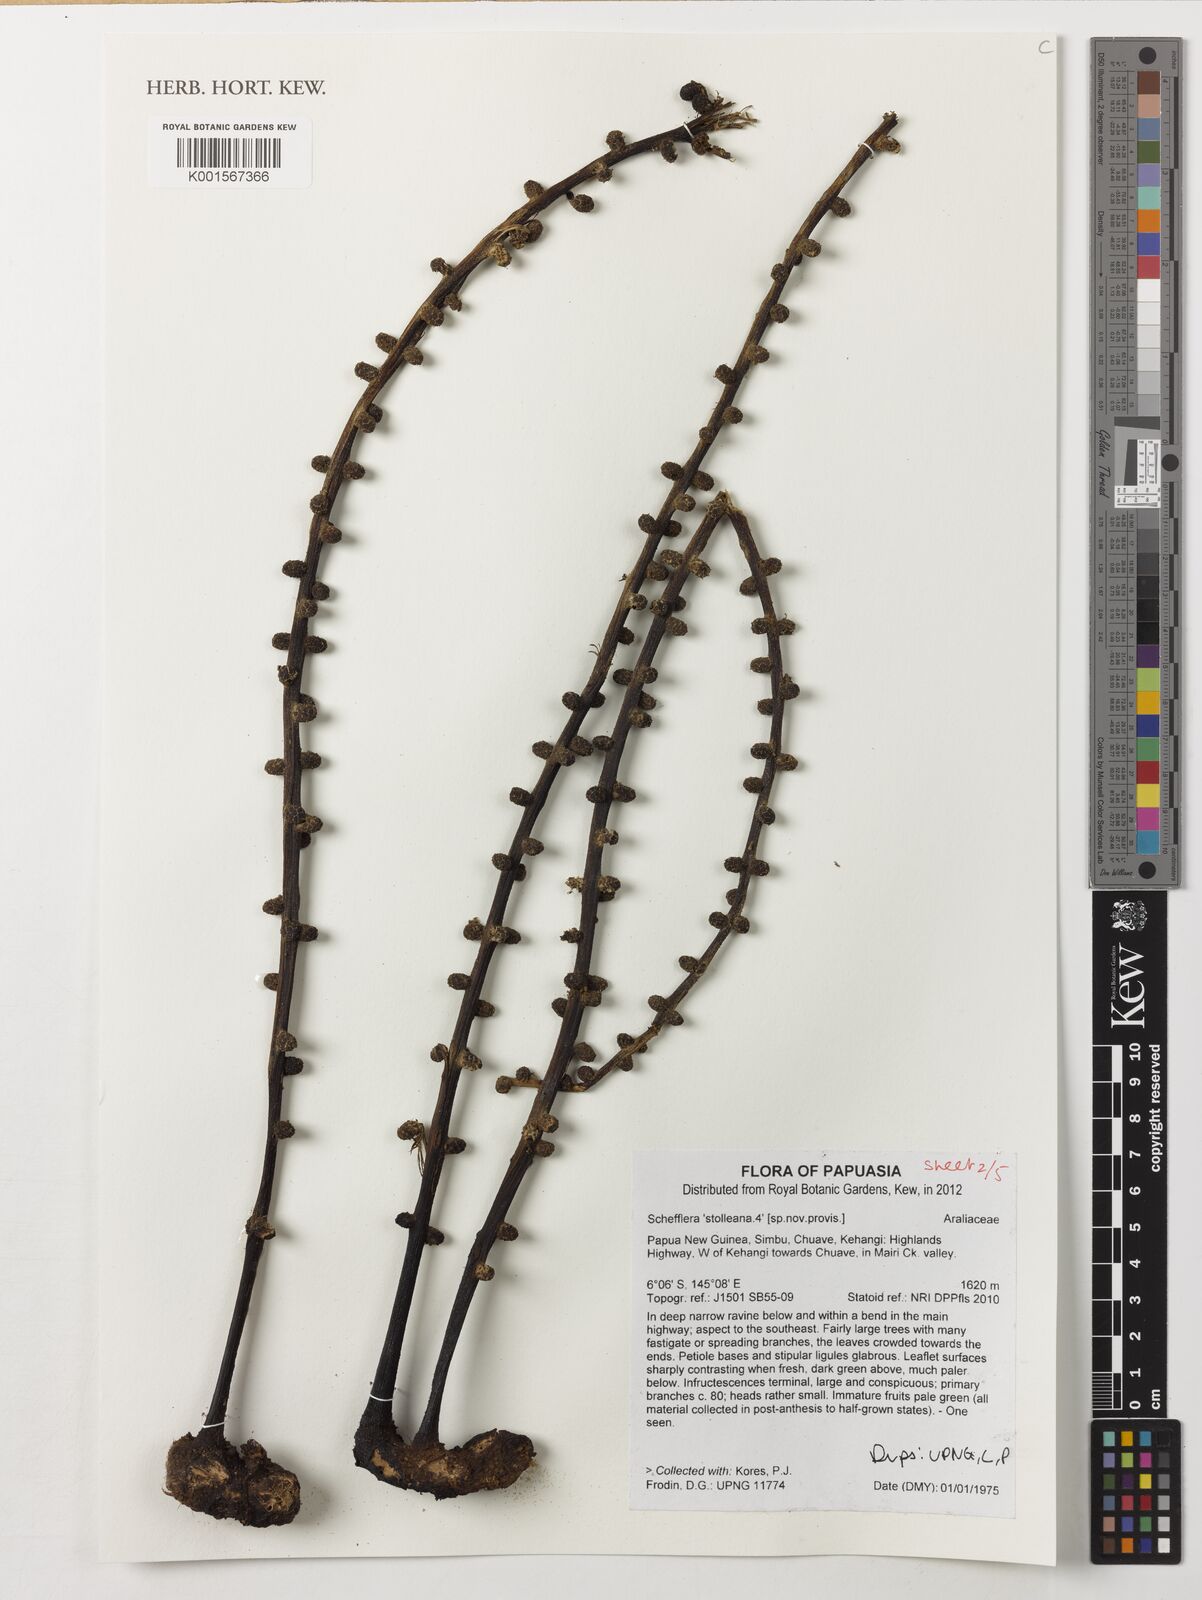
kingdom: Plantae
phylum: Tracheophyta
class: Magnoliopsida
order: Apiales
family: Araliaceae
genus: Heptapleurum
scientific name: Heptapleurum stolleanum
